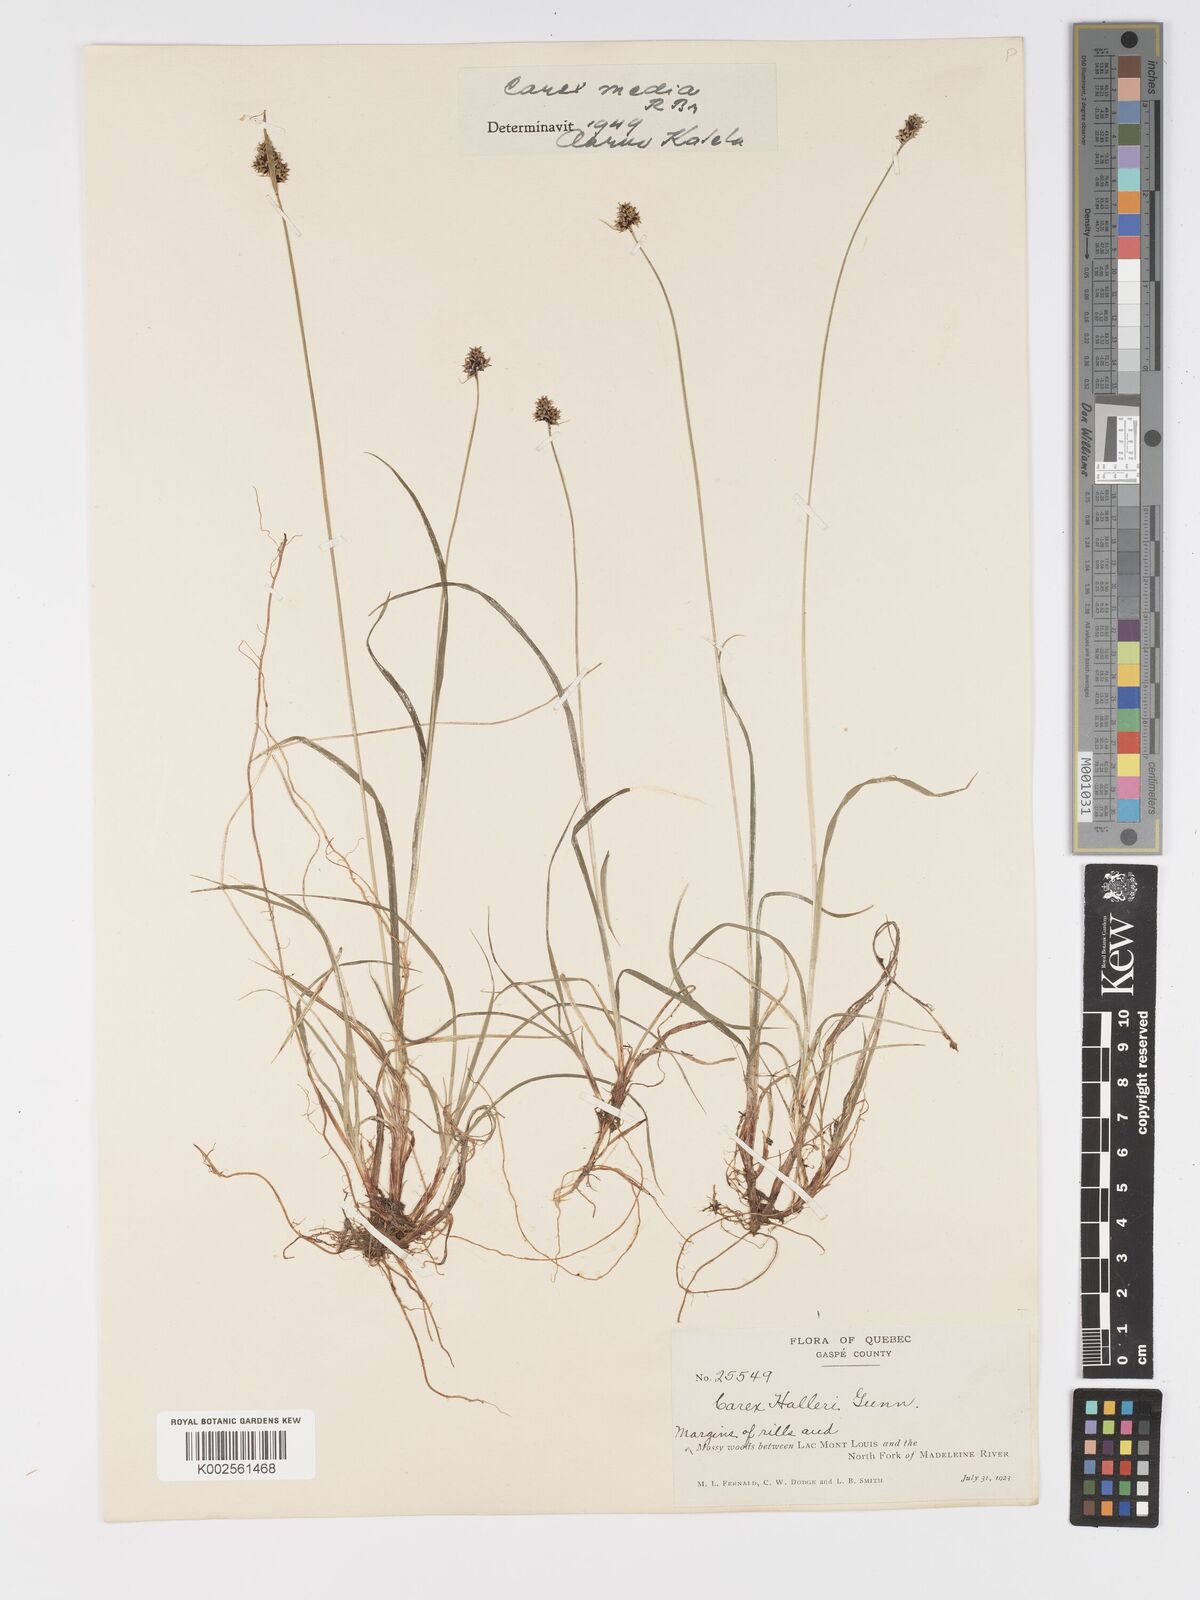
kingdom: Plantae
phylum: Tracheophyta
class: Liliopsida
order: Poales
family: Cyperaceae
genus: Carex
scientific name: Carex media
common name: Alpine sedge
